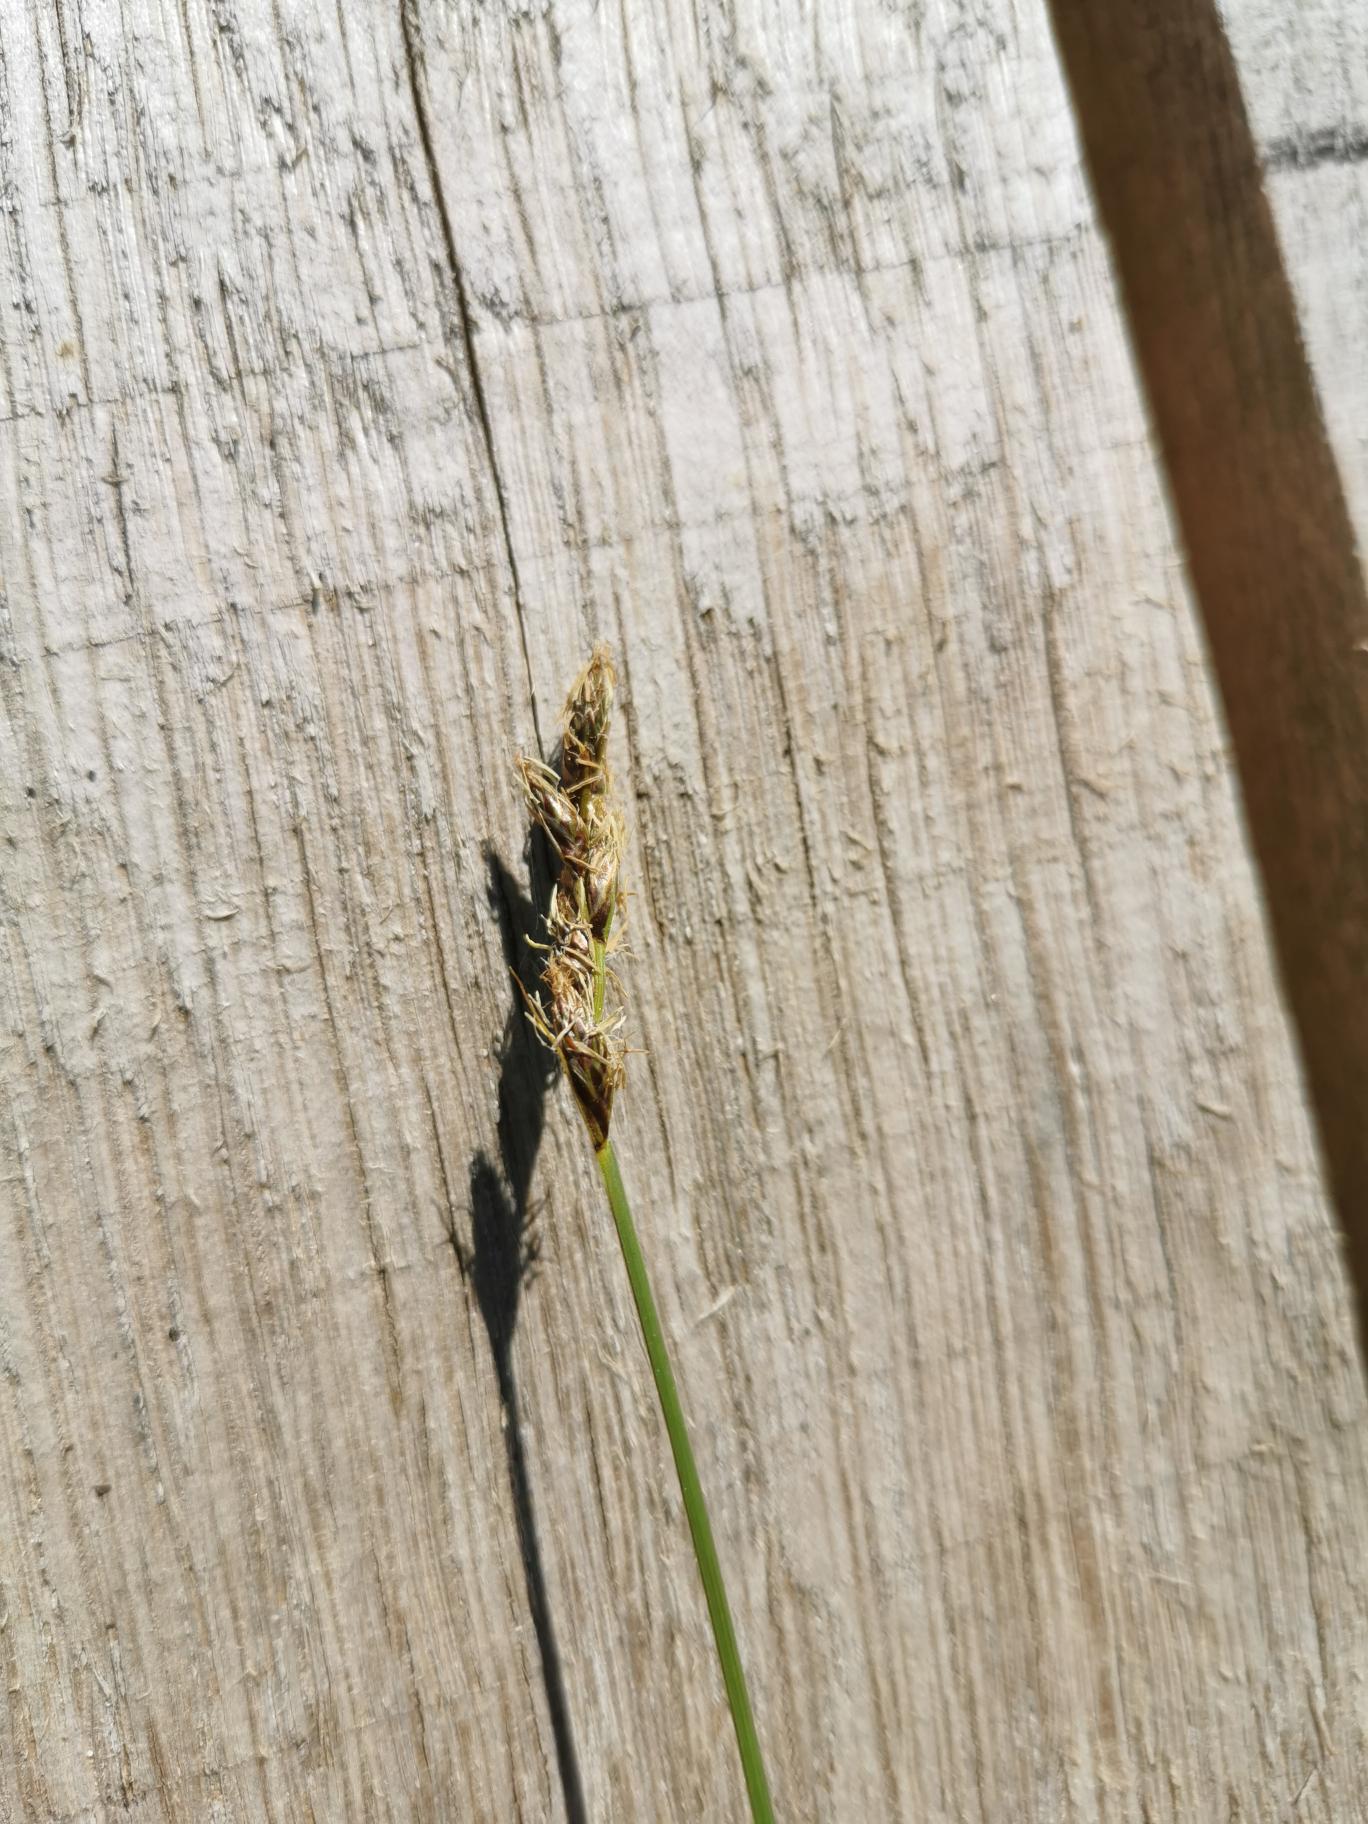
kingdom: Plantae
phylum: Tracheophyta
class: Liliopsida
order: Poales
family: Cyperaceae
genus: Carex
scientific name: Carex disticha
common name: Toradet star
